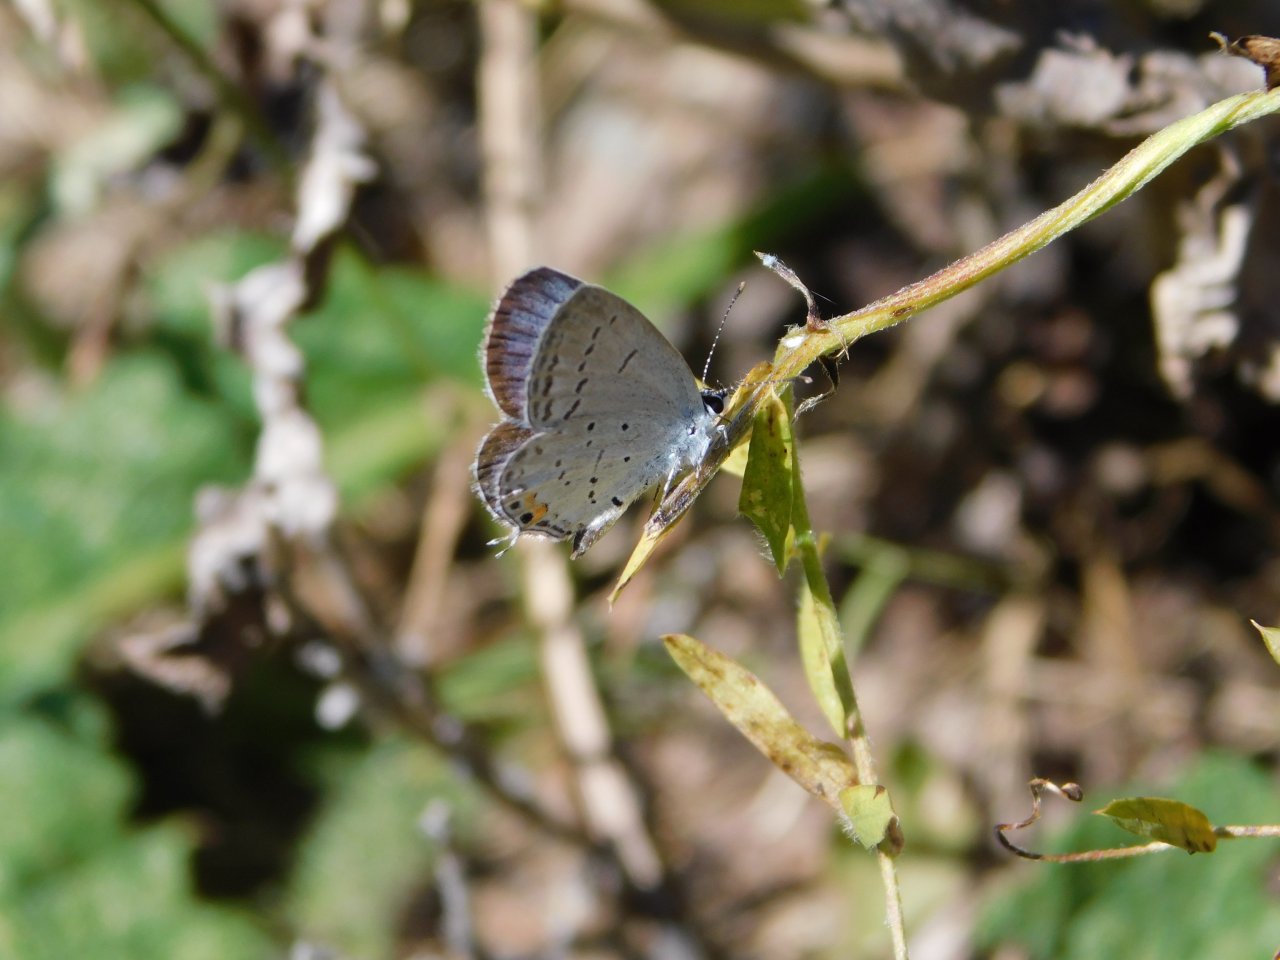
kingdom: Animalia
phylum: Arthropoda
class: Insecta
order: Lepidoptera
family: Lycaenidae
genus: Elkalyce
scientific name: Elkalyce comyntas
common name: Eastern Tailed-Blue
